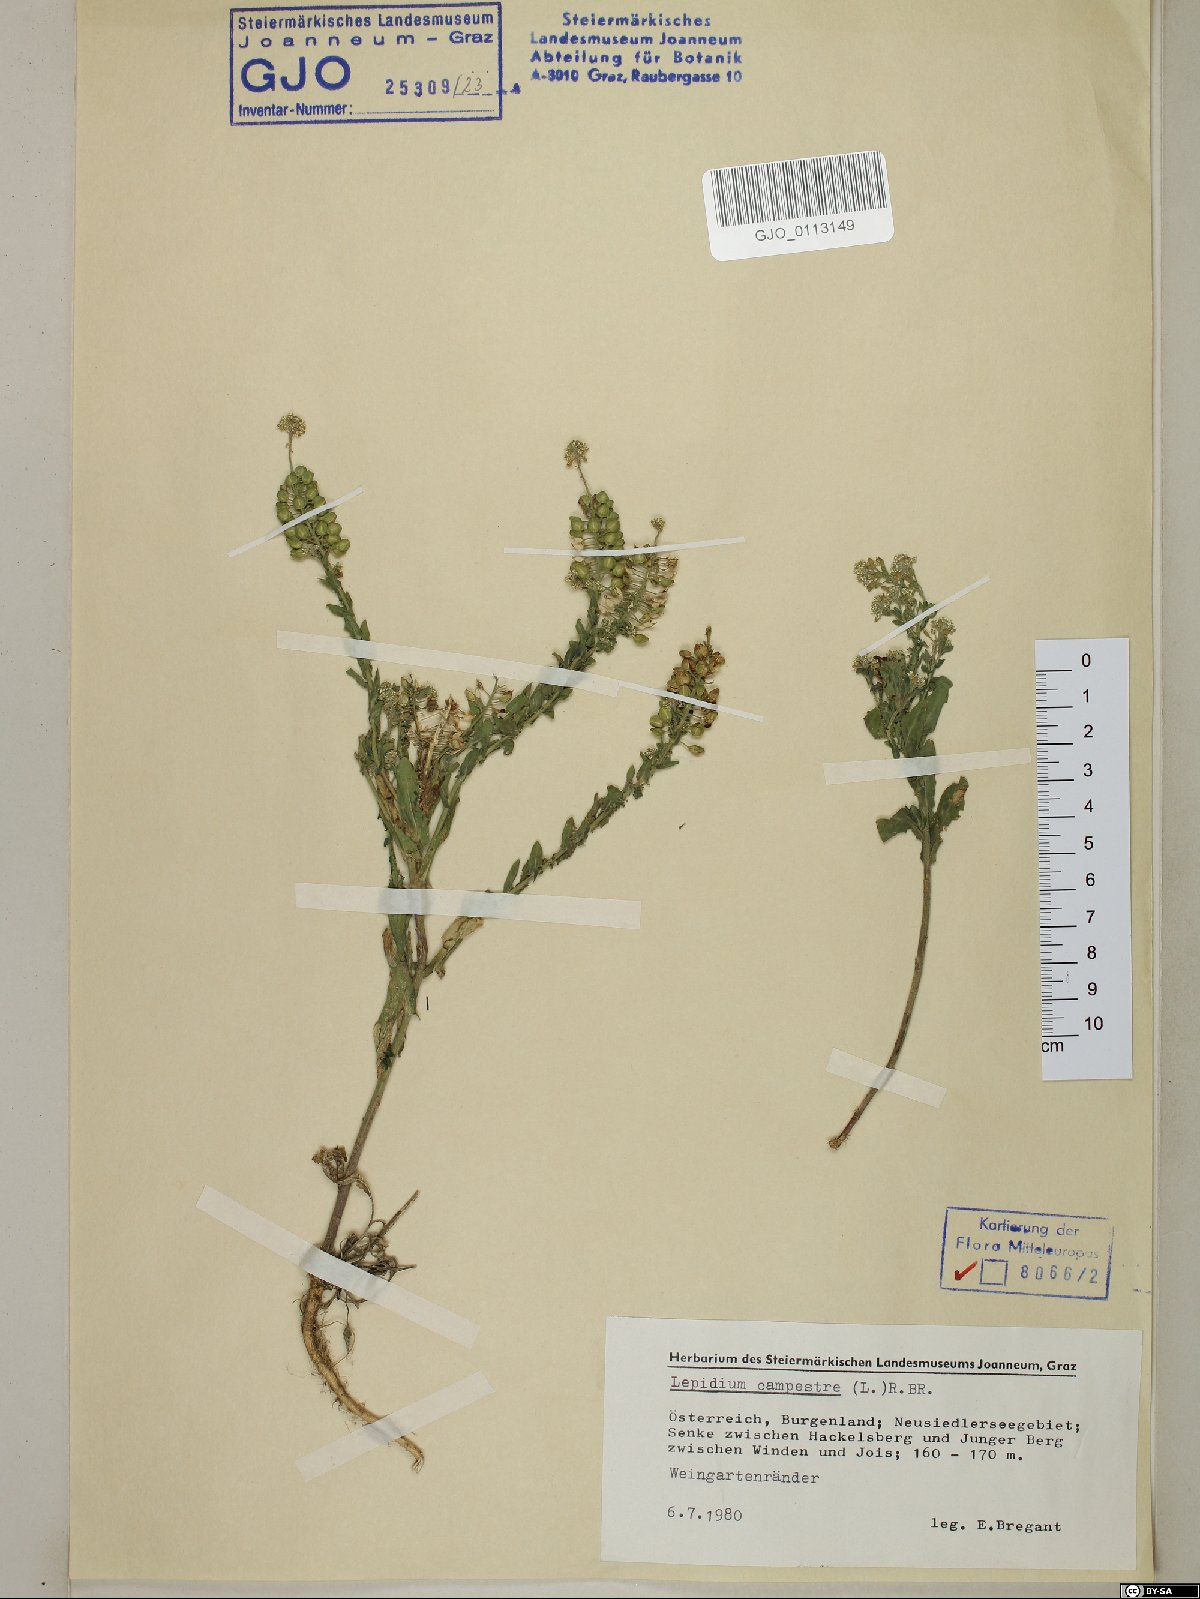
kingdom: Plantae
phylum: Tracheophyta
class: Magnoliopsida
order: Brassicales
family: Brassicaceae
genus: Lepidium
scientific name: Lepidium campestre
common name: Field pepperwort
